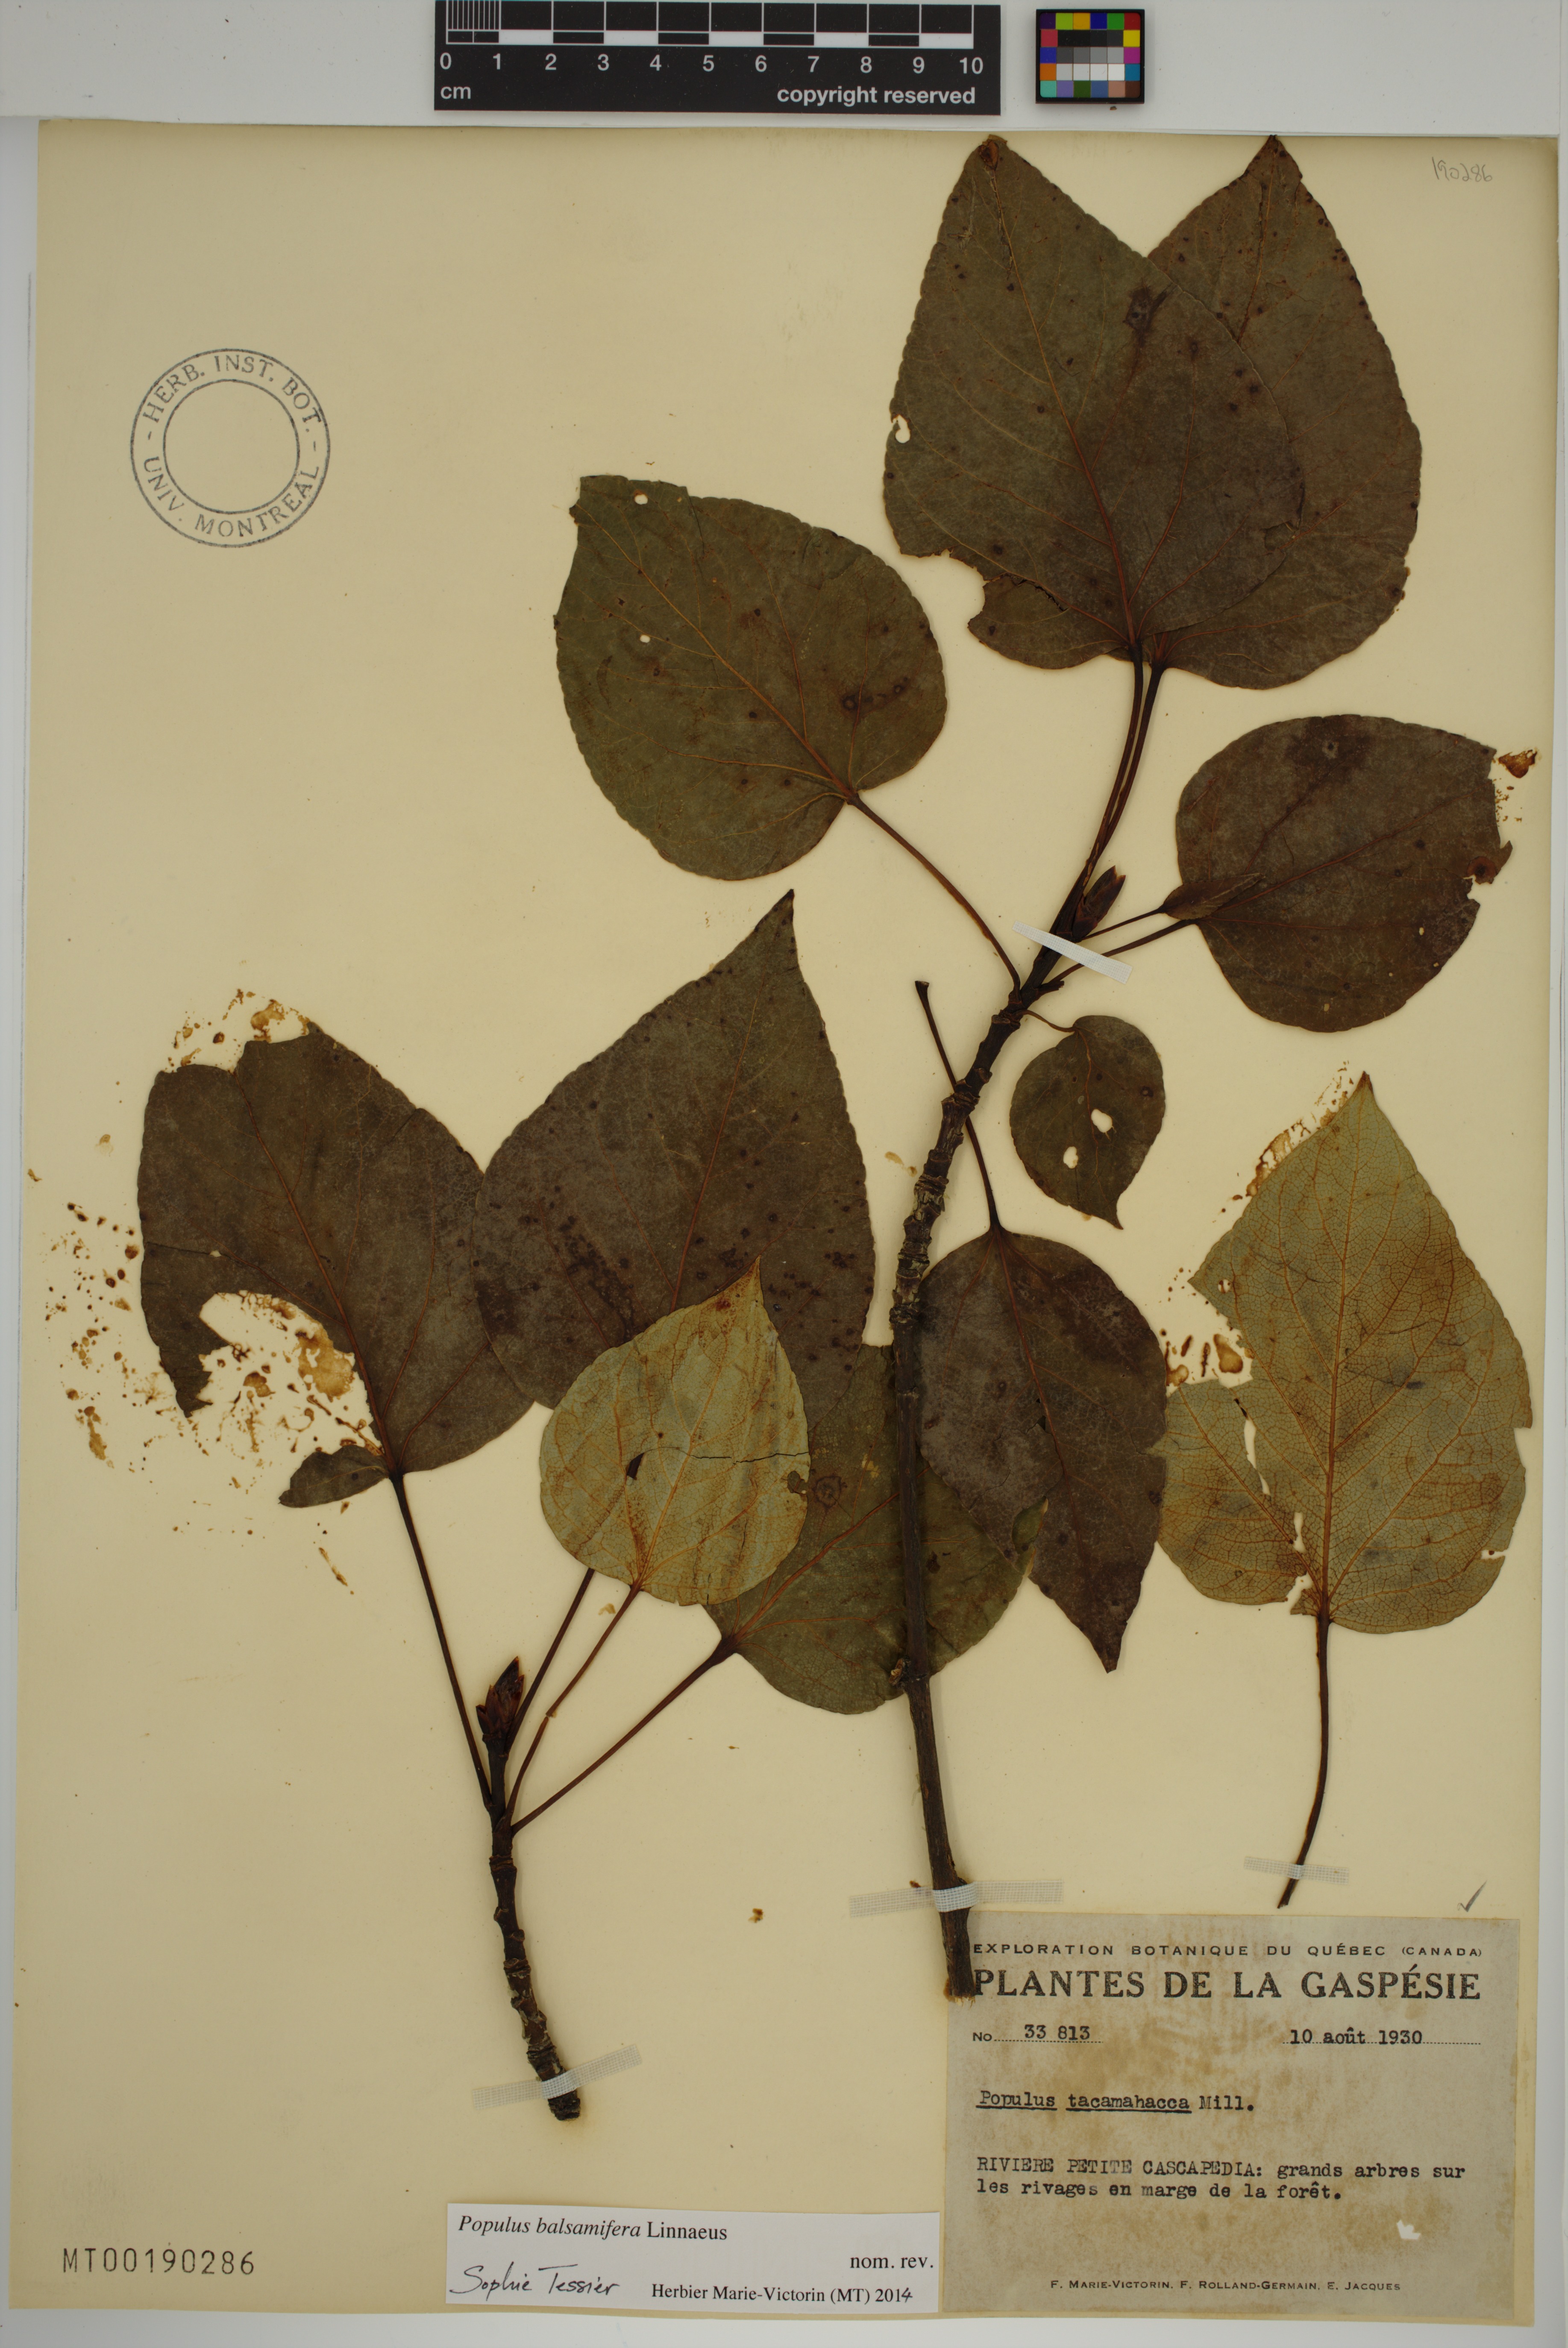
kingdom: Plantae
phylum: Tracheophyta
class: Magnoliopsida
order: Malpighiales
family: Salicaceae
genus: Populus
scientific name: Populus balsamifera
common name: Balsam poplar
